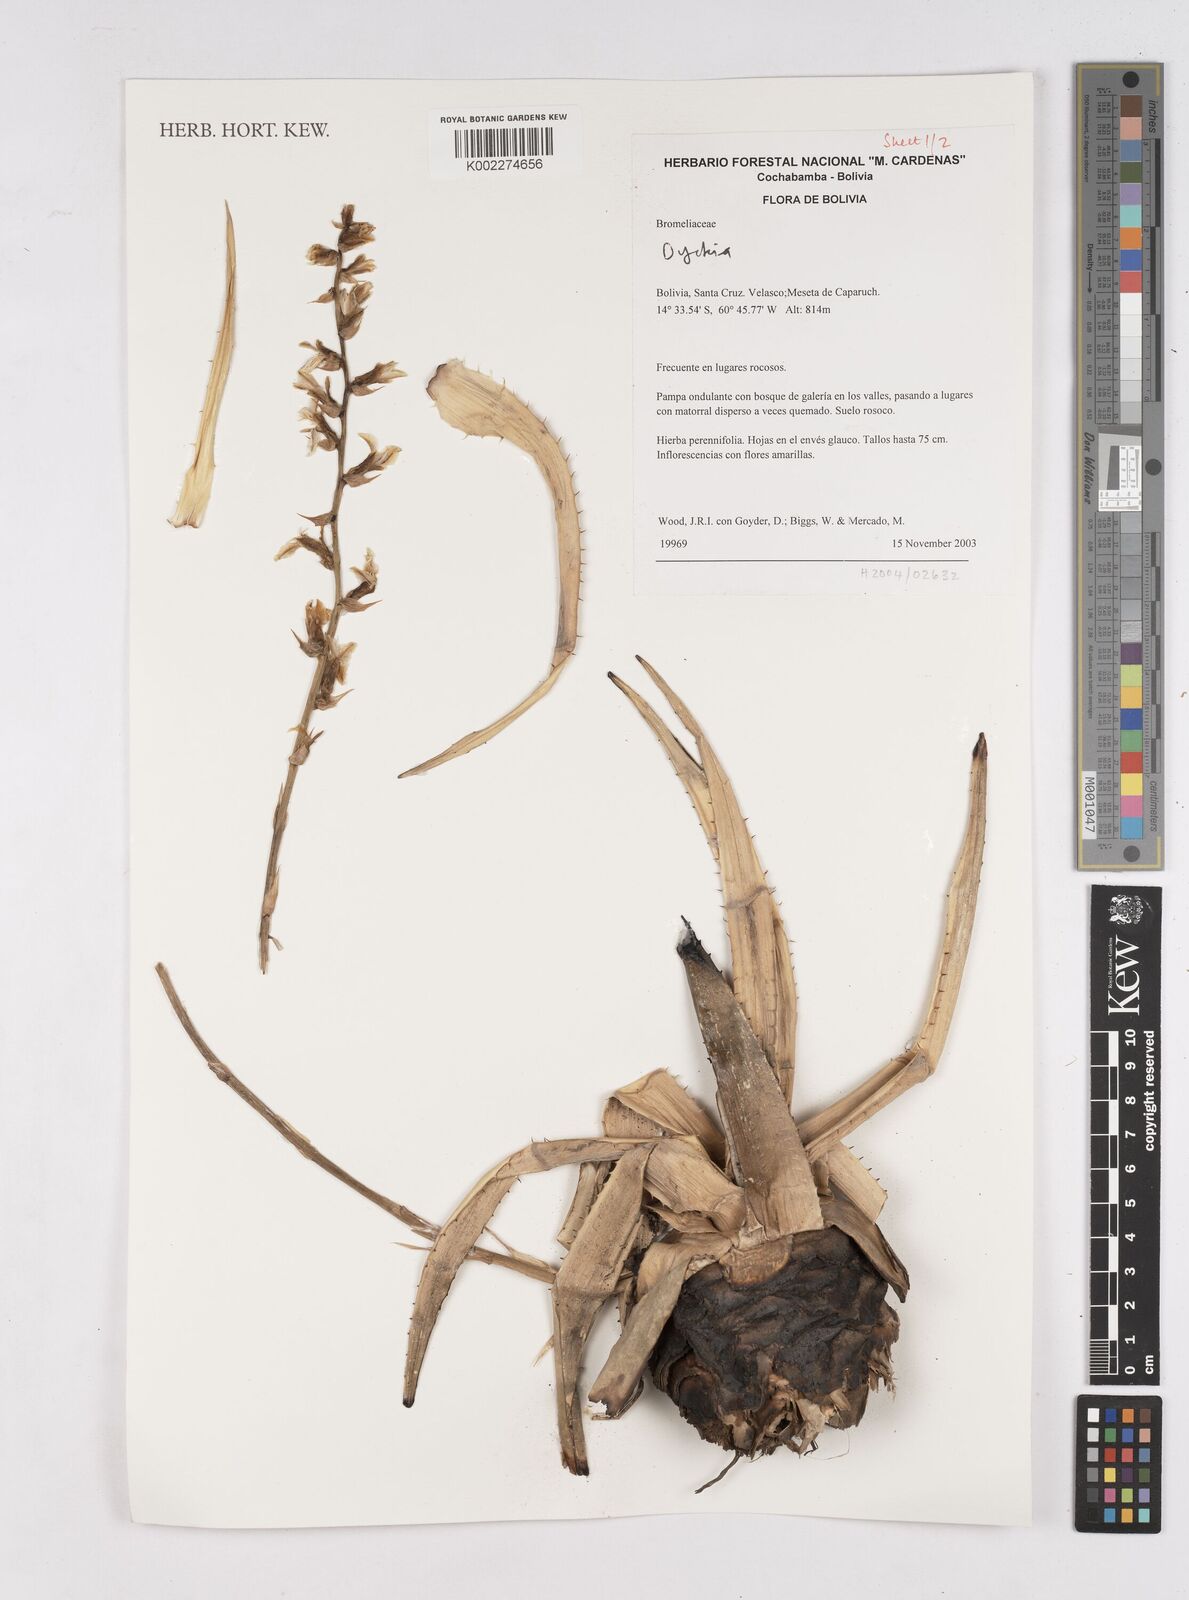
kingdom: Plantae
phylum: Tracheophyta
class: Liliopsida
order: Poales
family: Bromeliaceae
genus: Dyckia
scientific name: Dyckia
